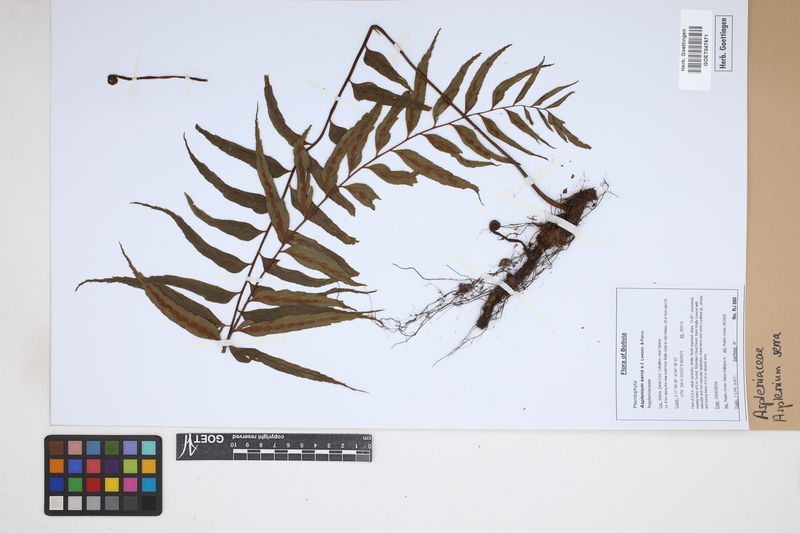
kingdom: Plantae
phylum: Tracheophyta
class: Polypodiopsida
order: Polypodiales
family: Aspleniaceae
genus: Asplenium
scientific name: Asplenium serra
